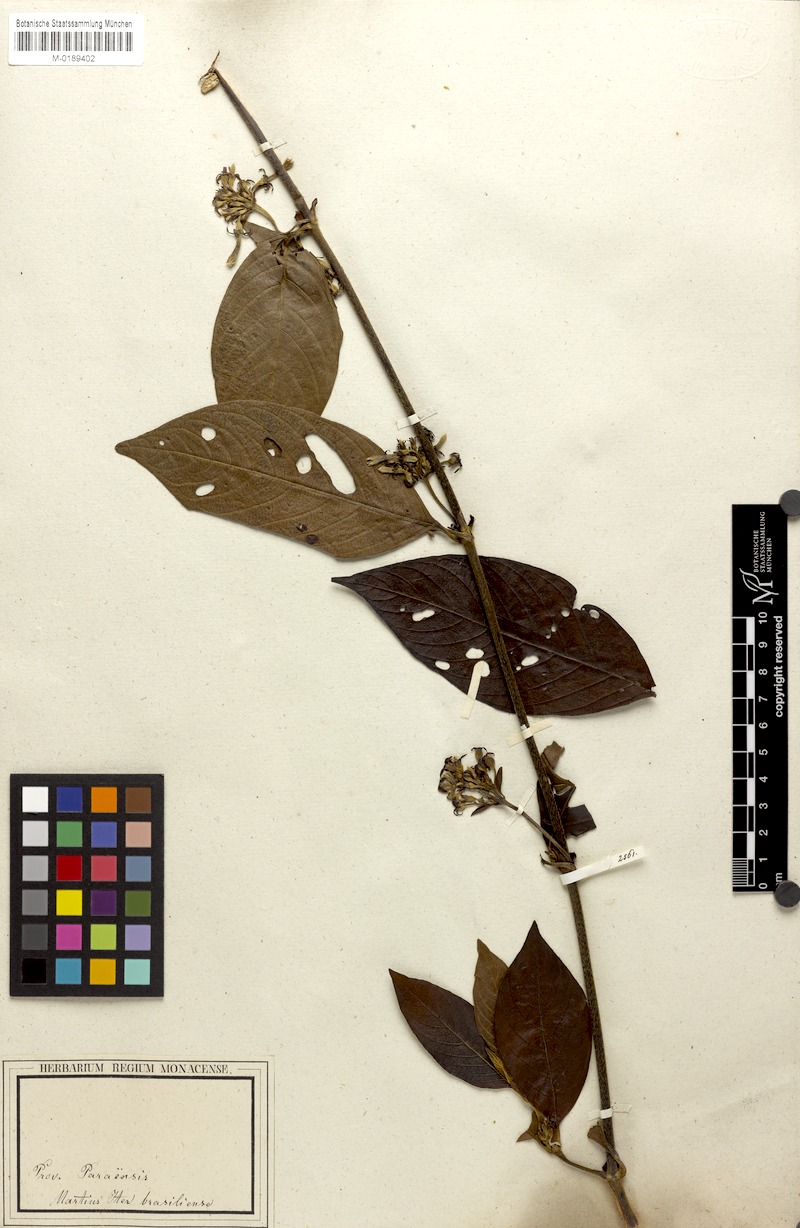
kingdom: Plantae
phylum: Tracheophyta
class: Magnoliopsida
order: Gentianales
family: Rubiaceae
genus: Sabicea
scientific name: Sabicea panamensis
